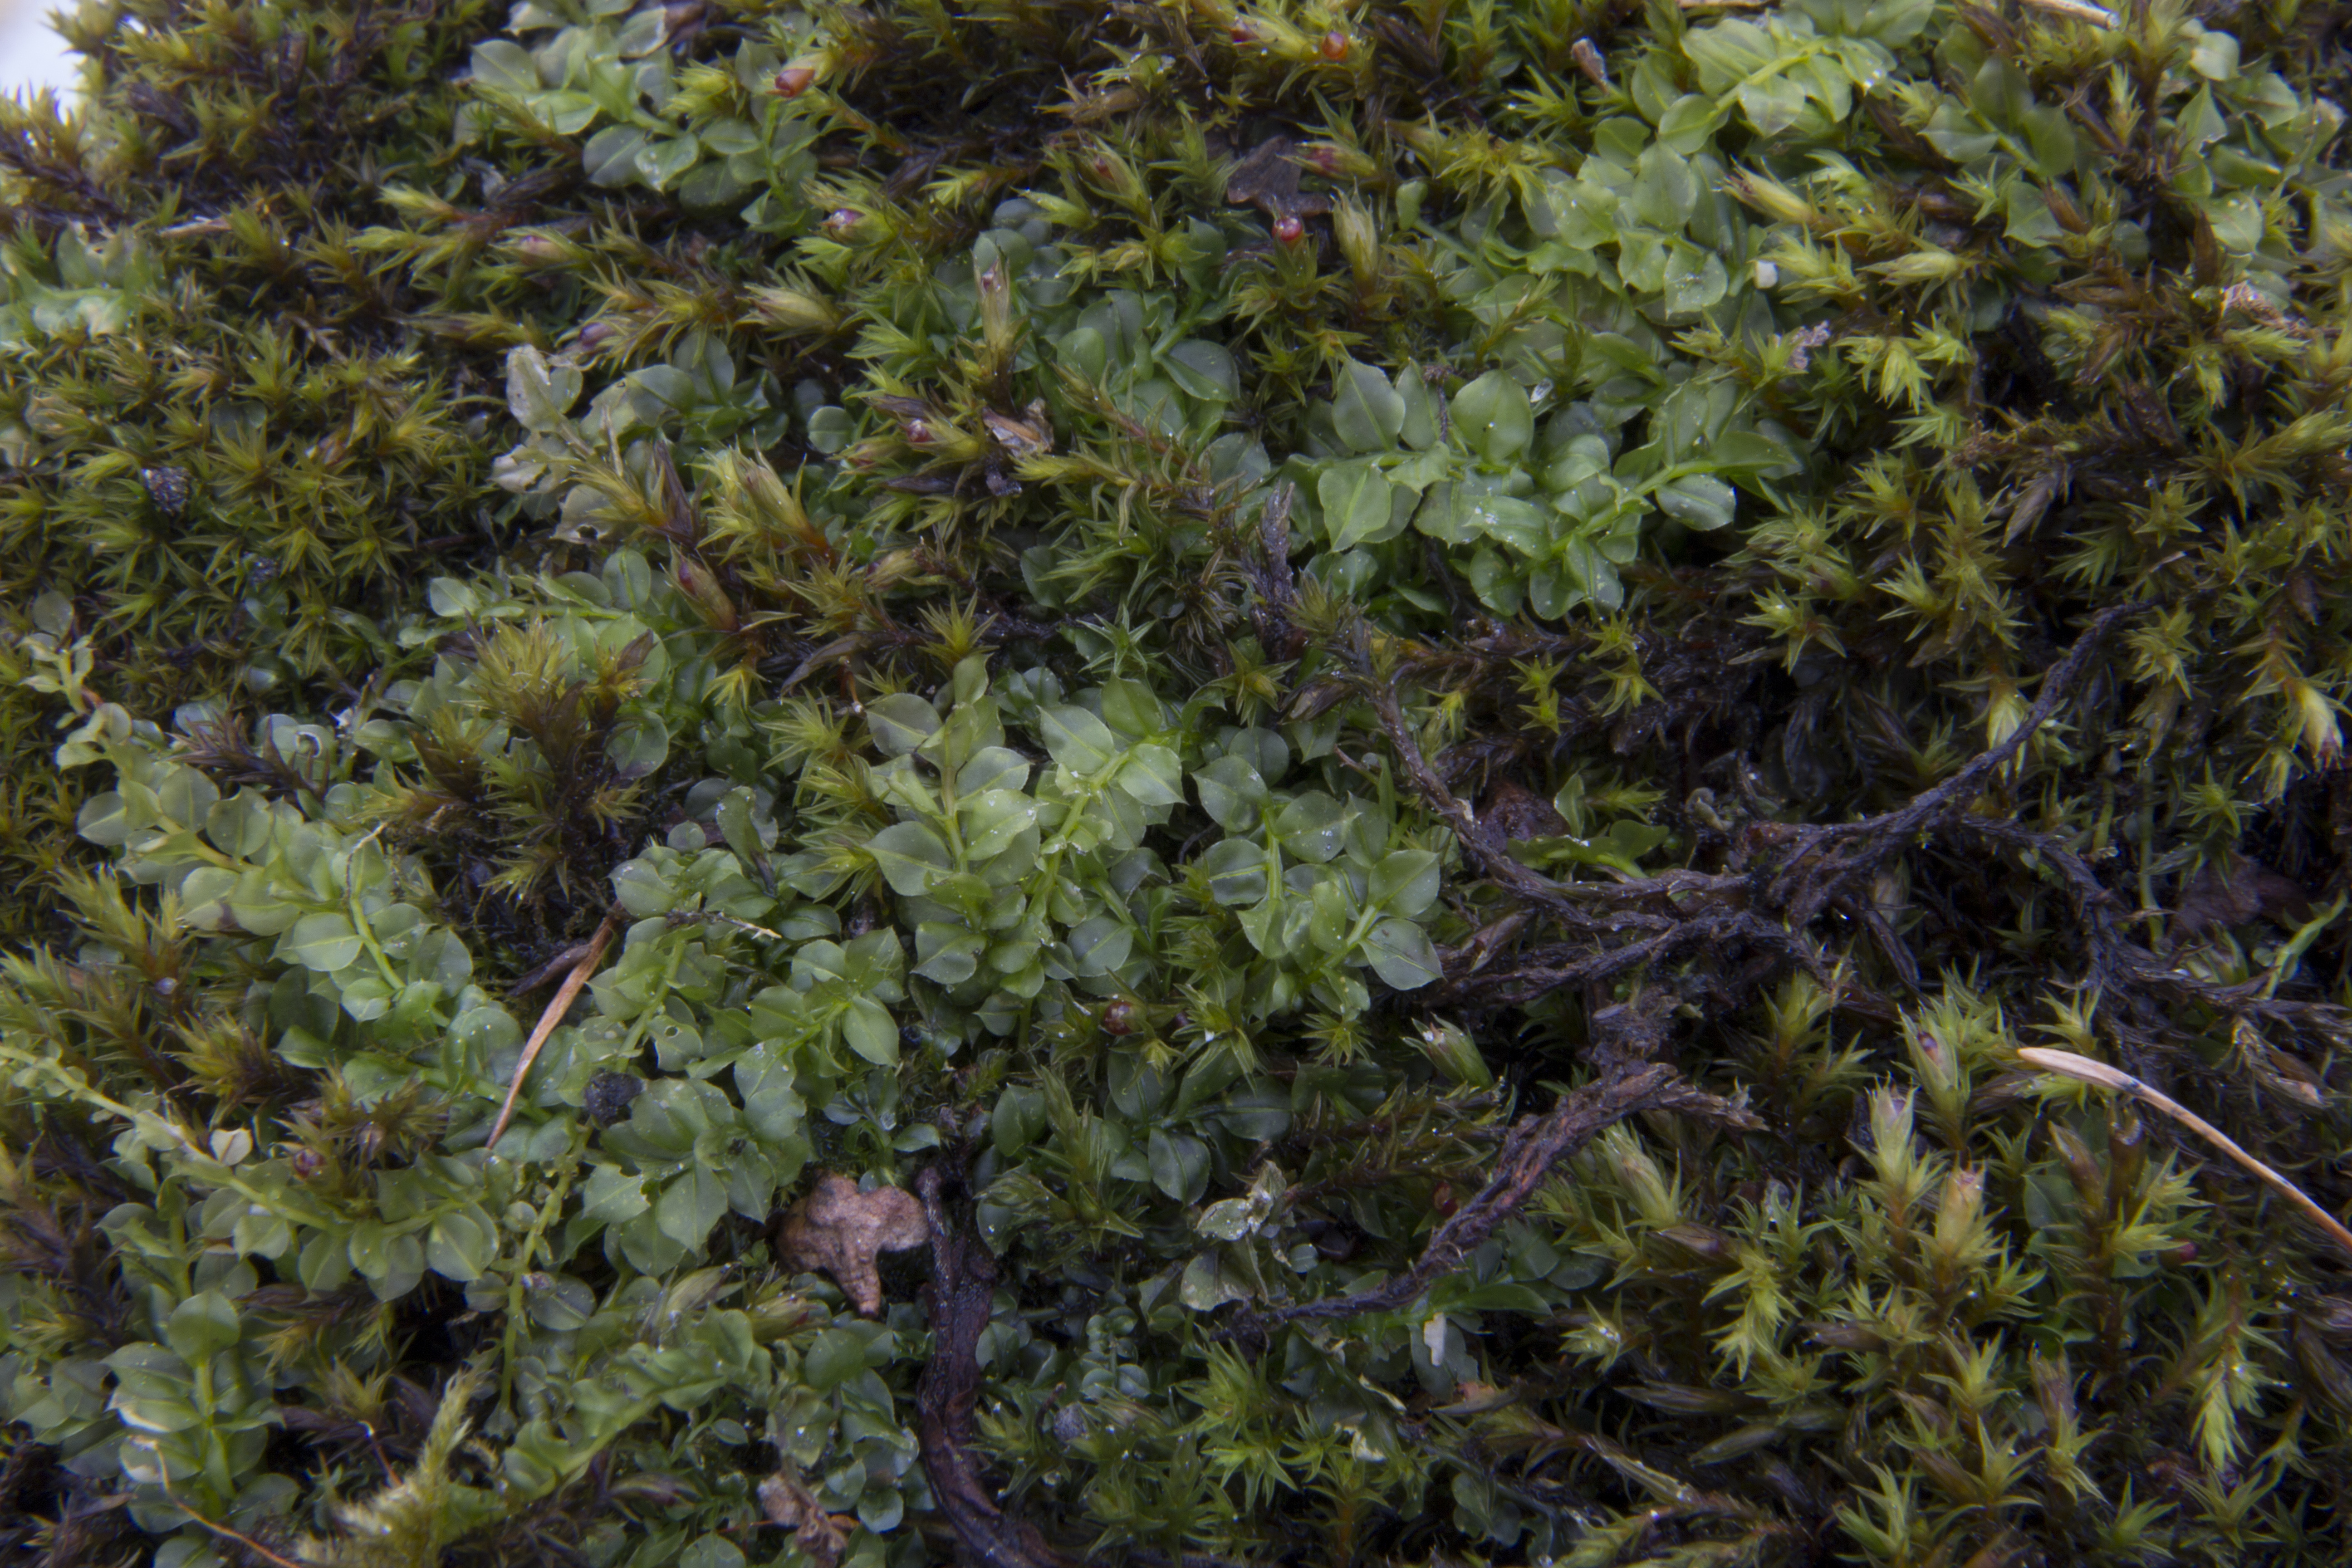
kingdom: Plantae
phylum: Bryophyta
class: Bryopsida
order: Bryales
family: Mniaceae
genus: Plagiomnium
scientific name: Plagiomnium cuspidatum
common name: Woodsy leafy moss
